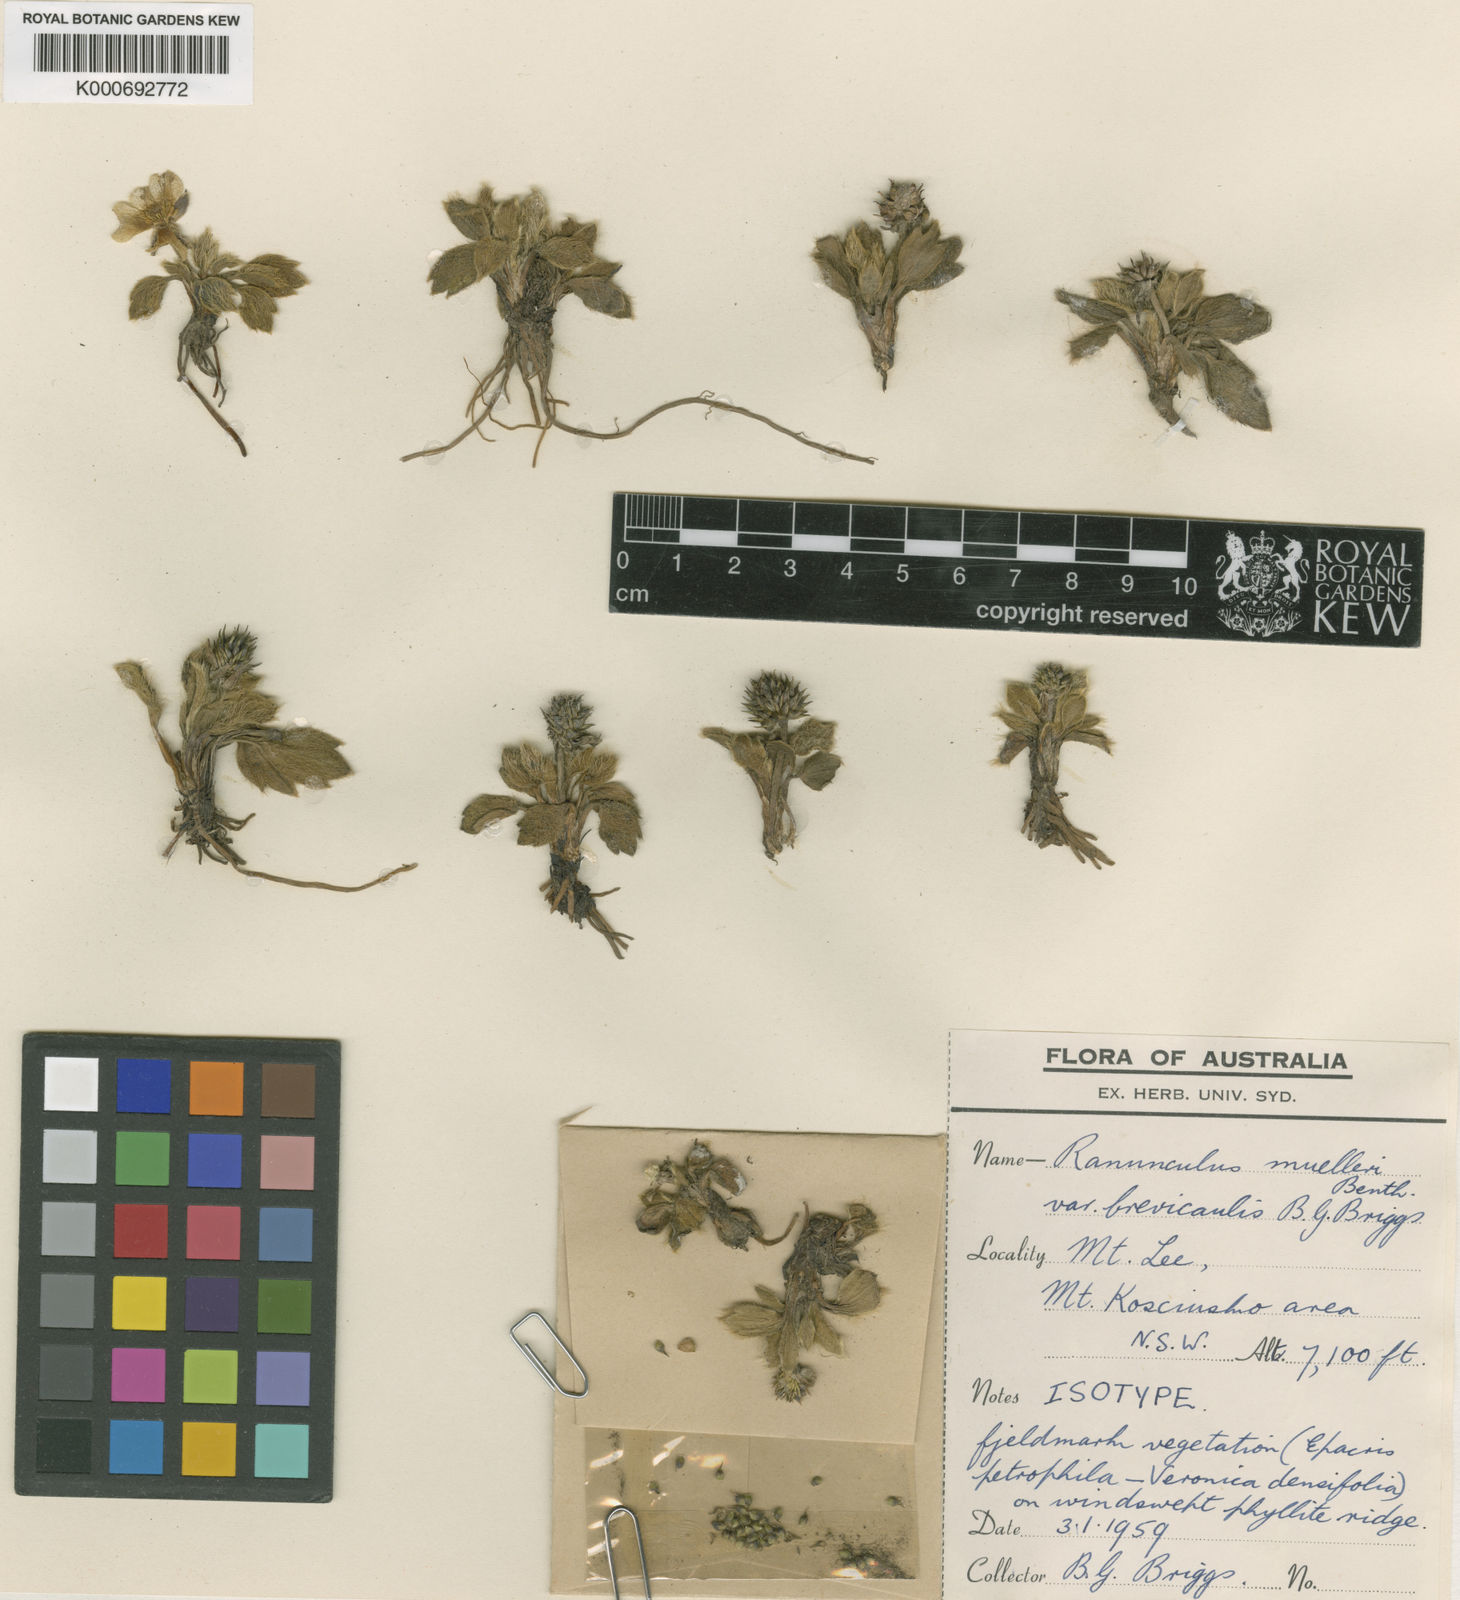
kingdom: Plantae
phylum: Tracheophyta
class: Magnoliopsida
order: Ranunculales
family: Ranunculaceae
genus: Ranunculus
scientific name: Ranunculus acrophilus
